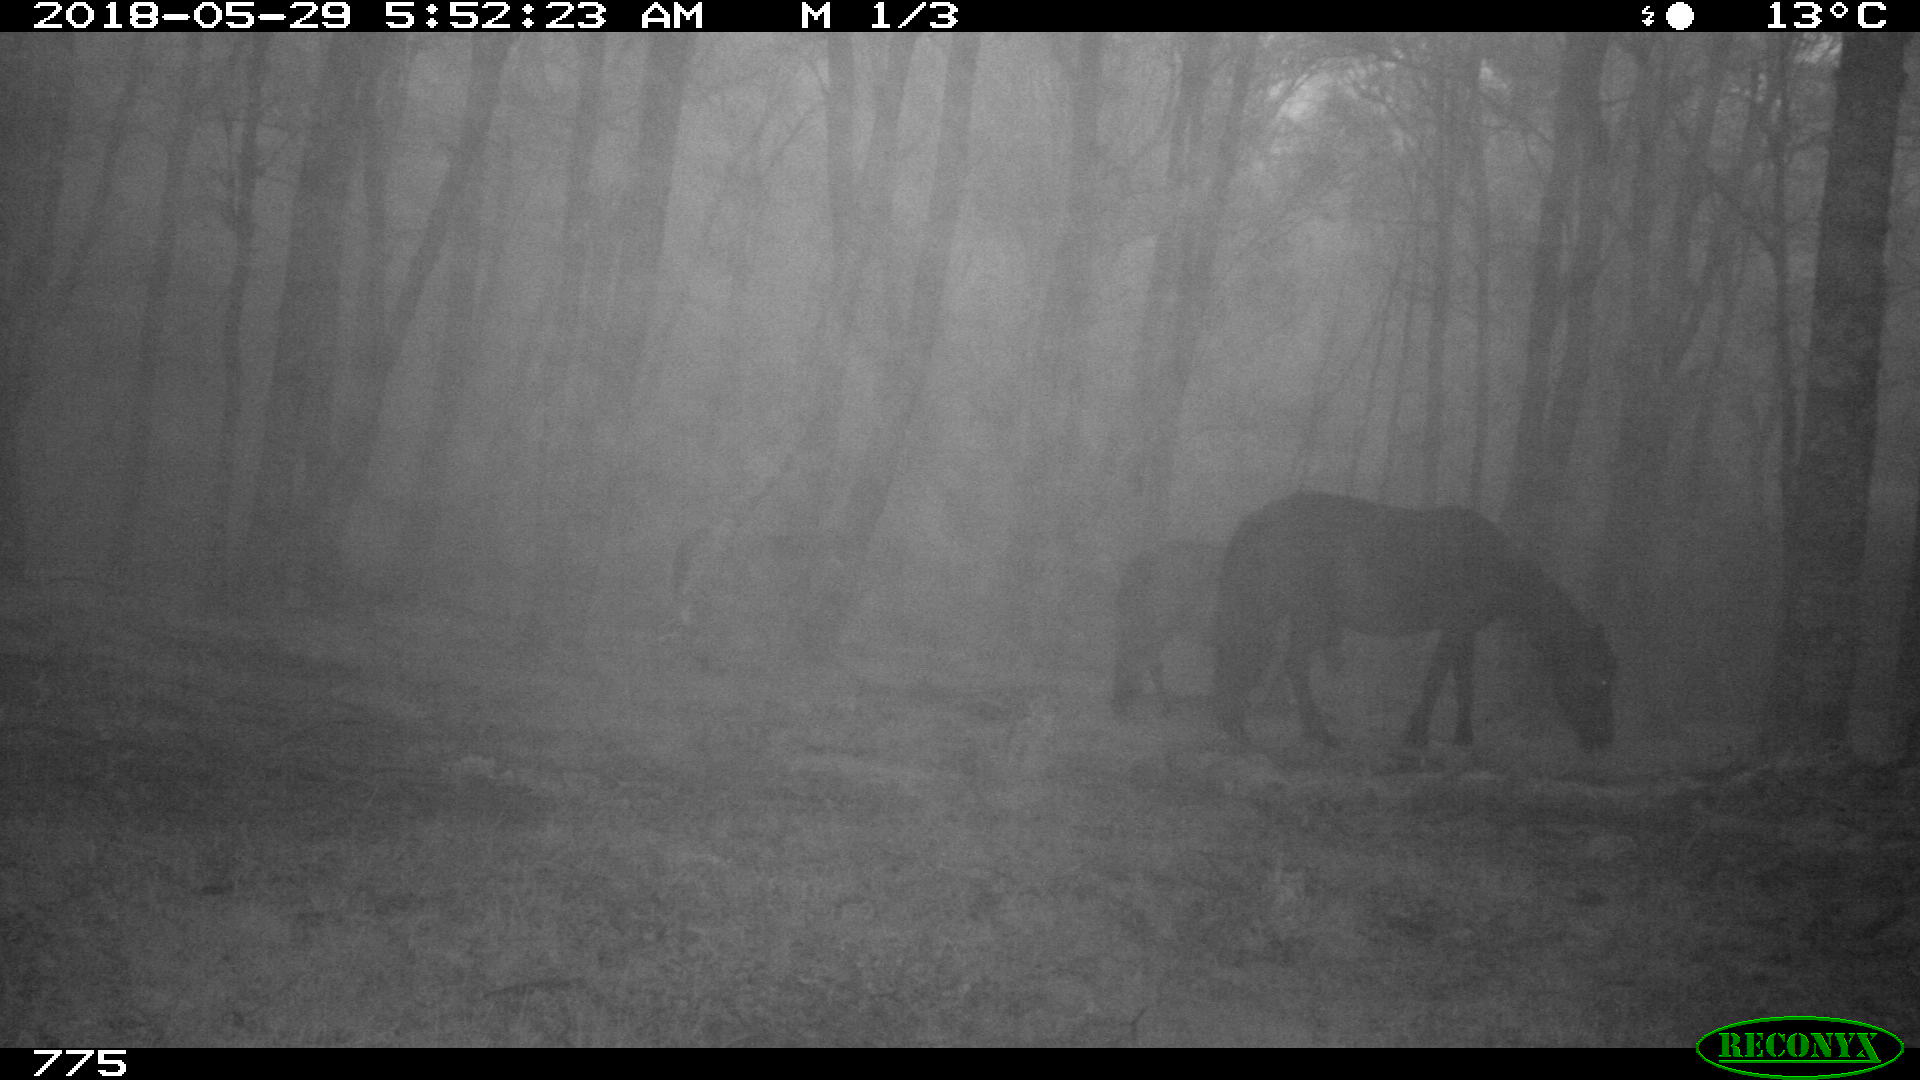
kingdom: Animalia
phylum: Chordata
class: Mammalia
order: Perissodactyla
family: Equidae
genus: Equus
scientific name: Equus caballus
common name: Horse
